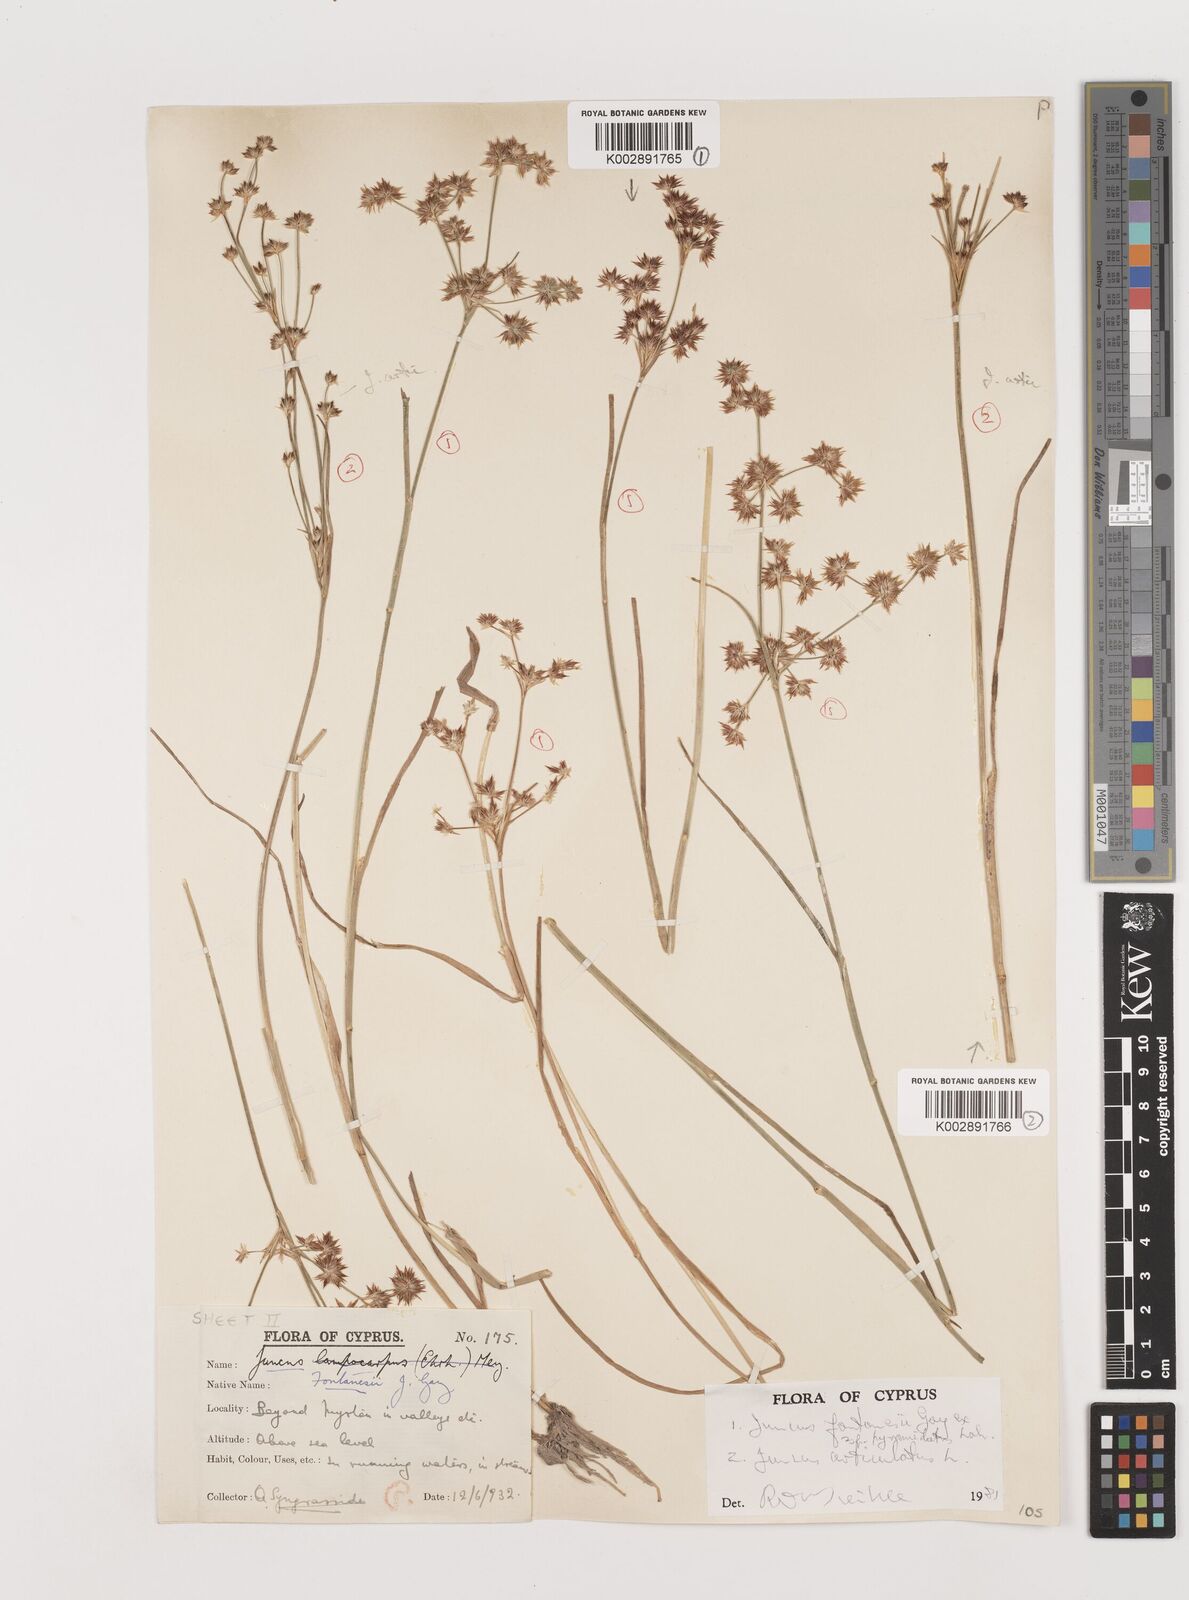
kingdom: Plantae
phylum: Tracheophyta
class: Liliopsida
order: Poales
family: Juncaceae
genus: Juncus
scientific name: Juncus articulatus
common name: Jointed rush
